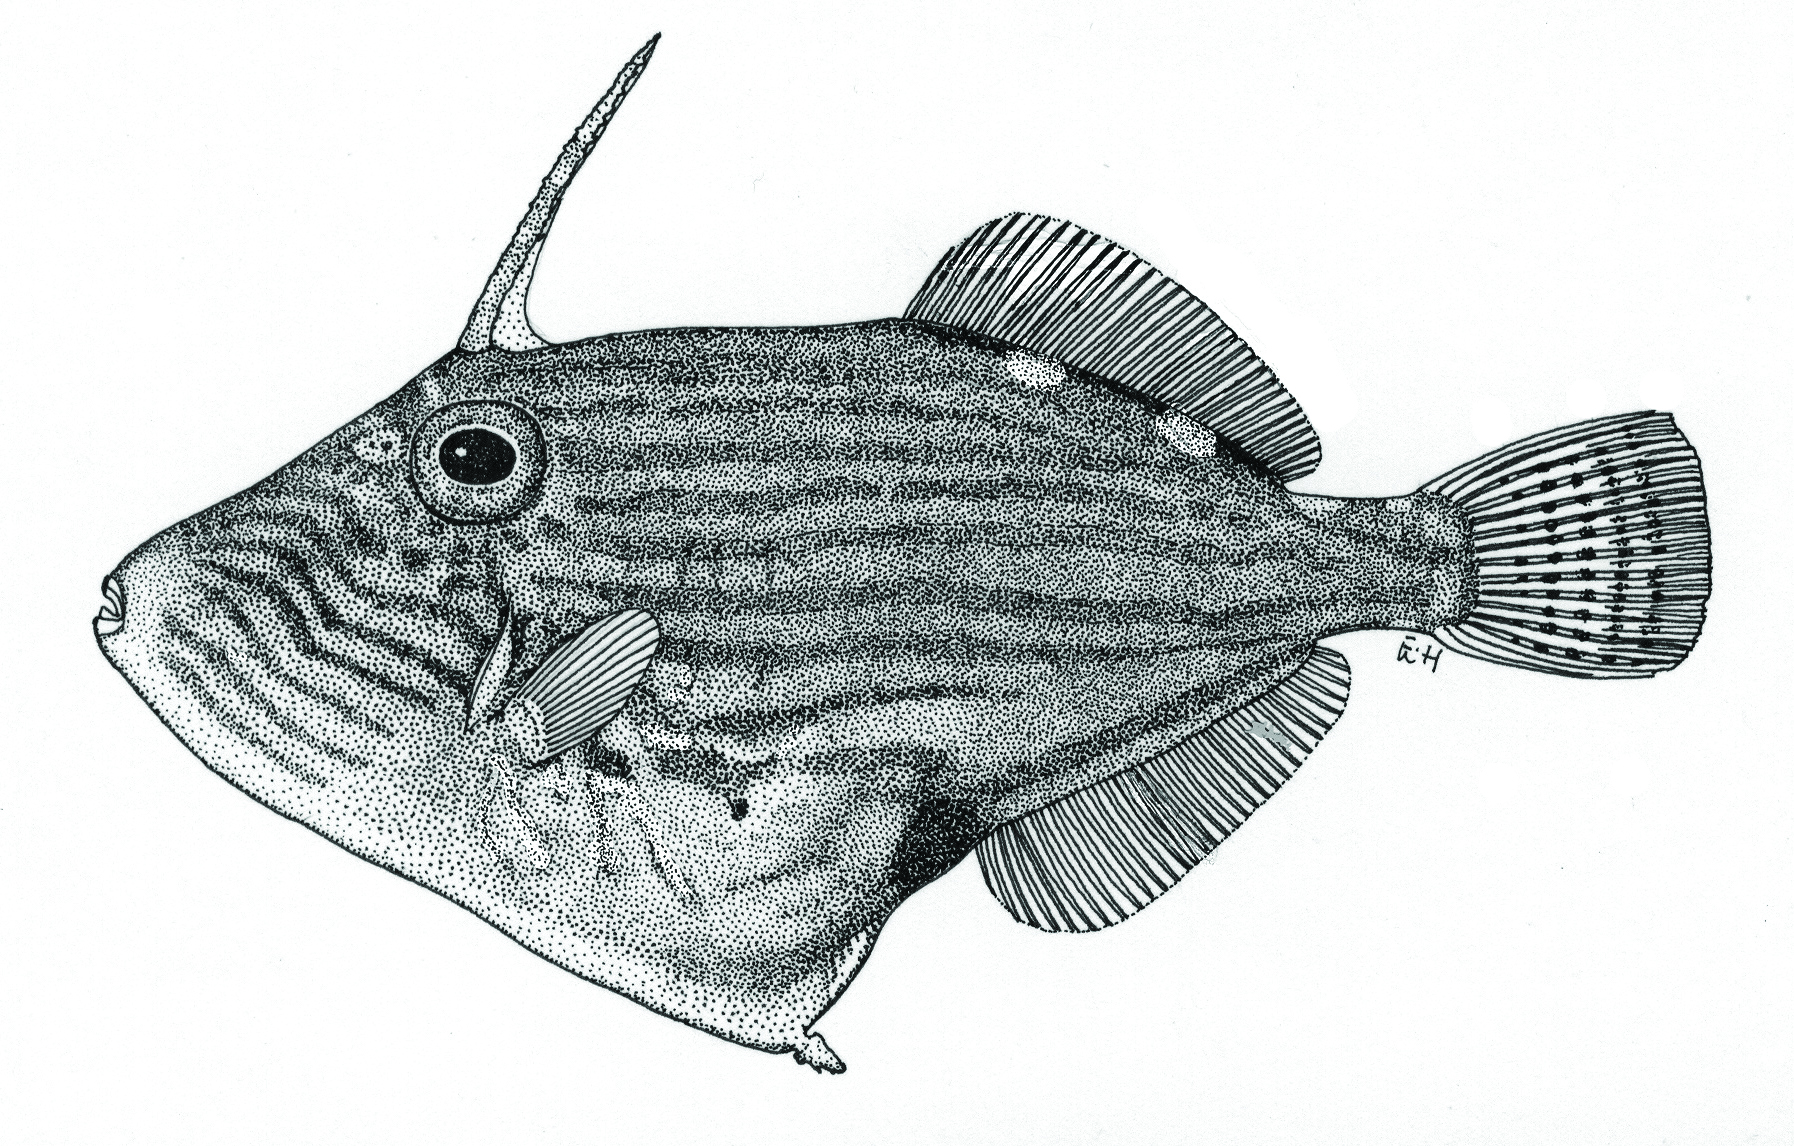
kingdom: Animalia
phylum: Chordata
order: Tetraodontiformes
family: Monacanthidae
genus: Thamnaconus
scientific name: Thamnaconus striatus
